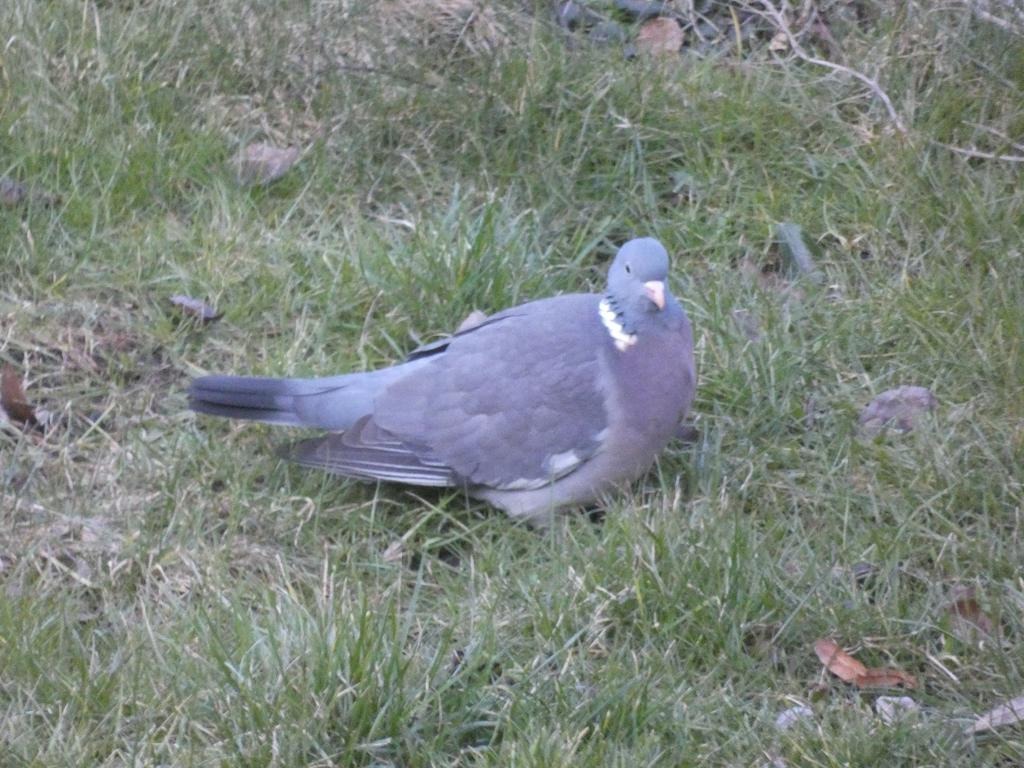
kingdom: Animalia
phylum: Chordata
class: Aves
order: Columbiformes
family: Columbidae
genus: Columba
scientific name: Columba palumbus
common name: Ringdue
